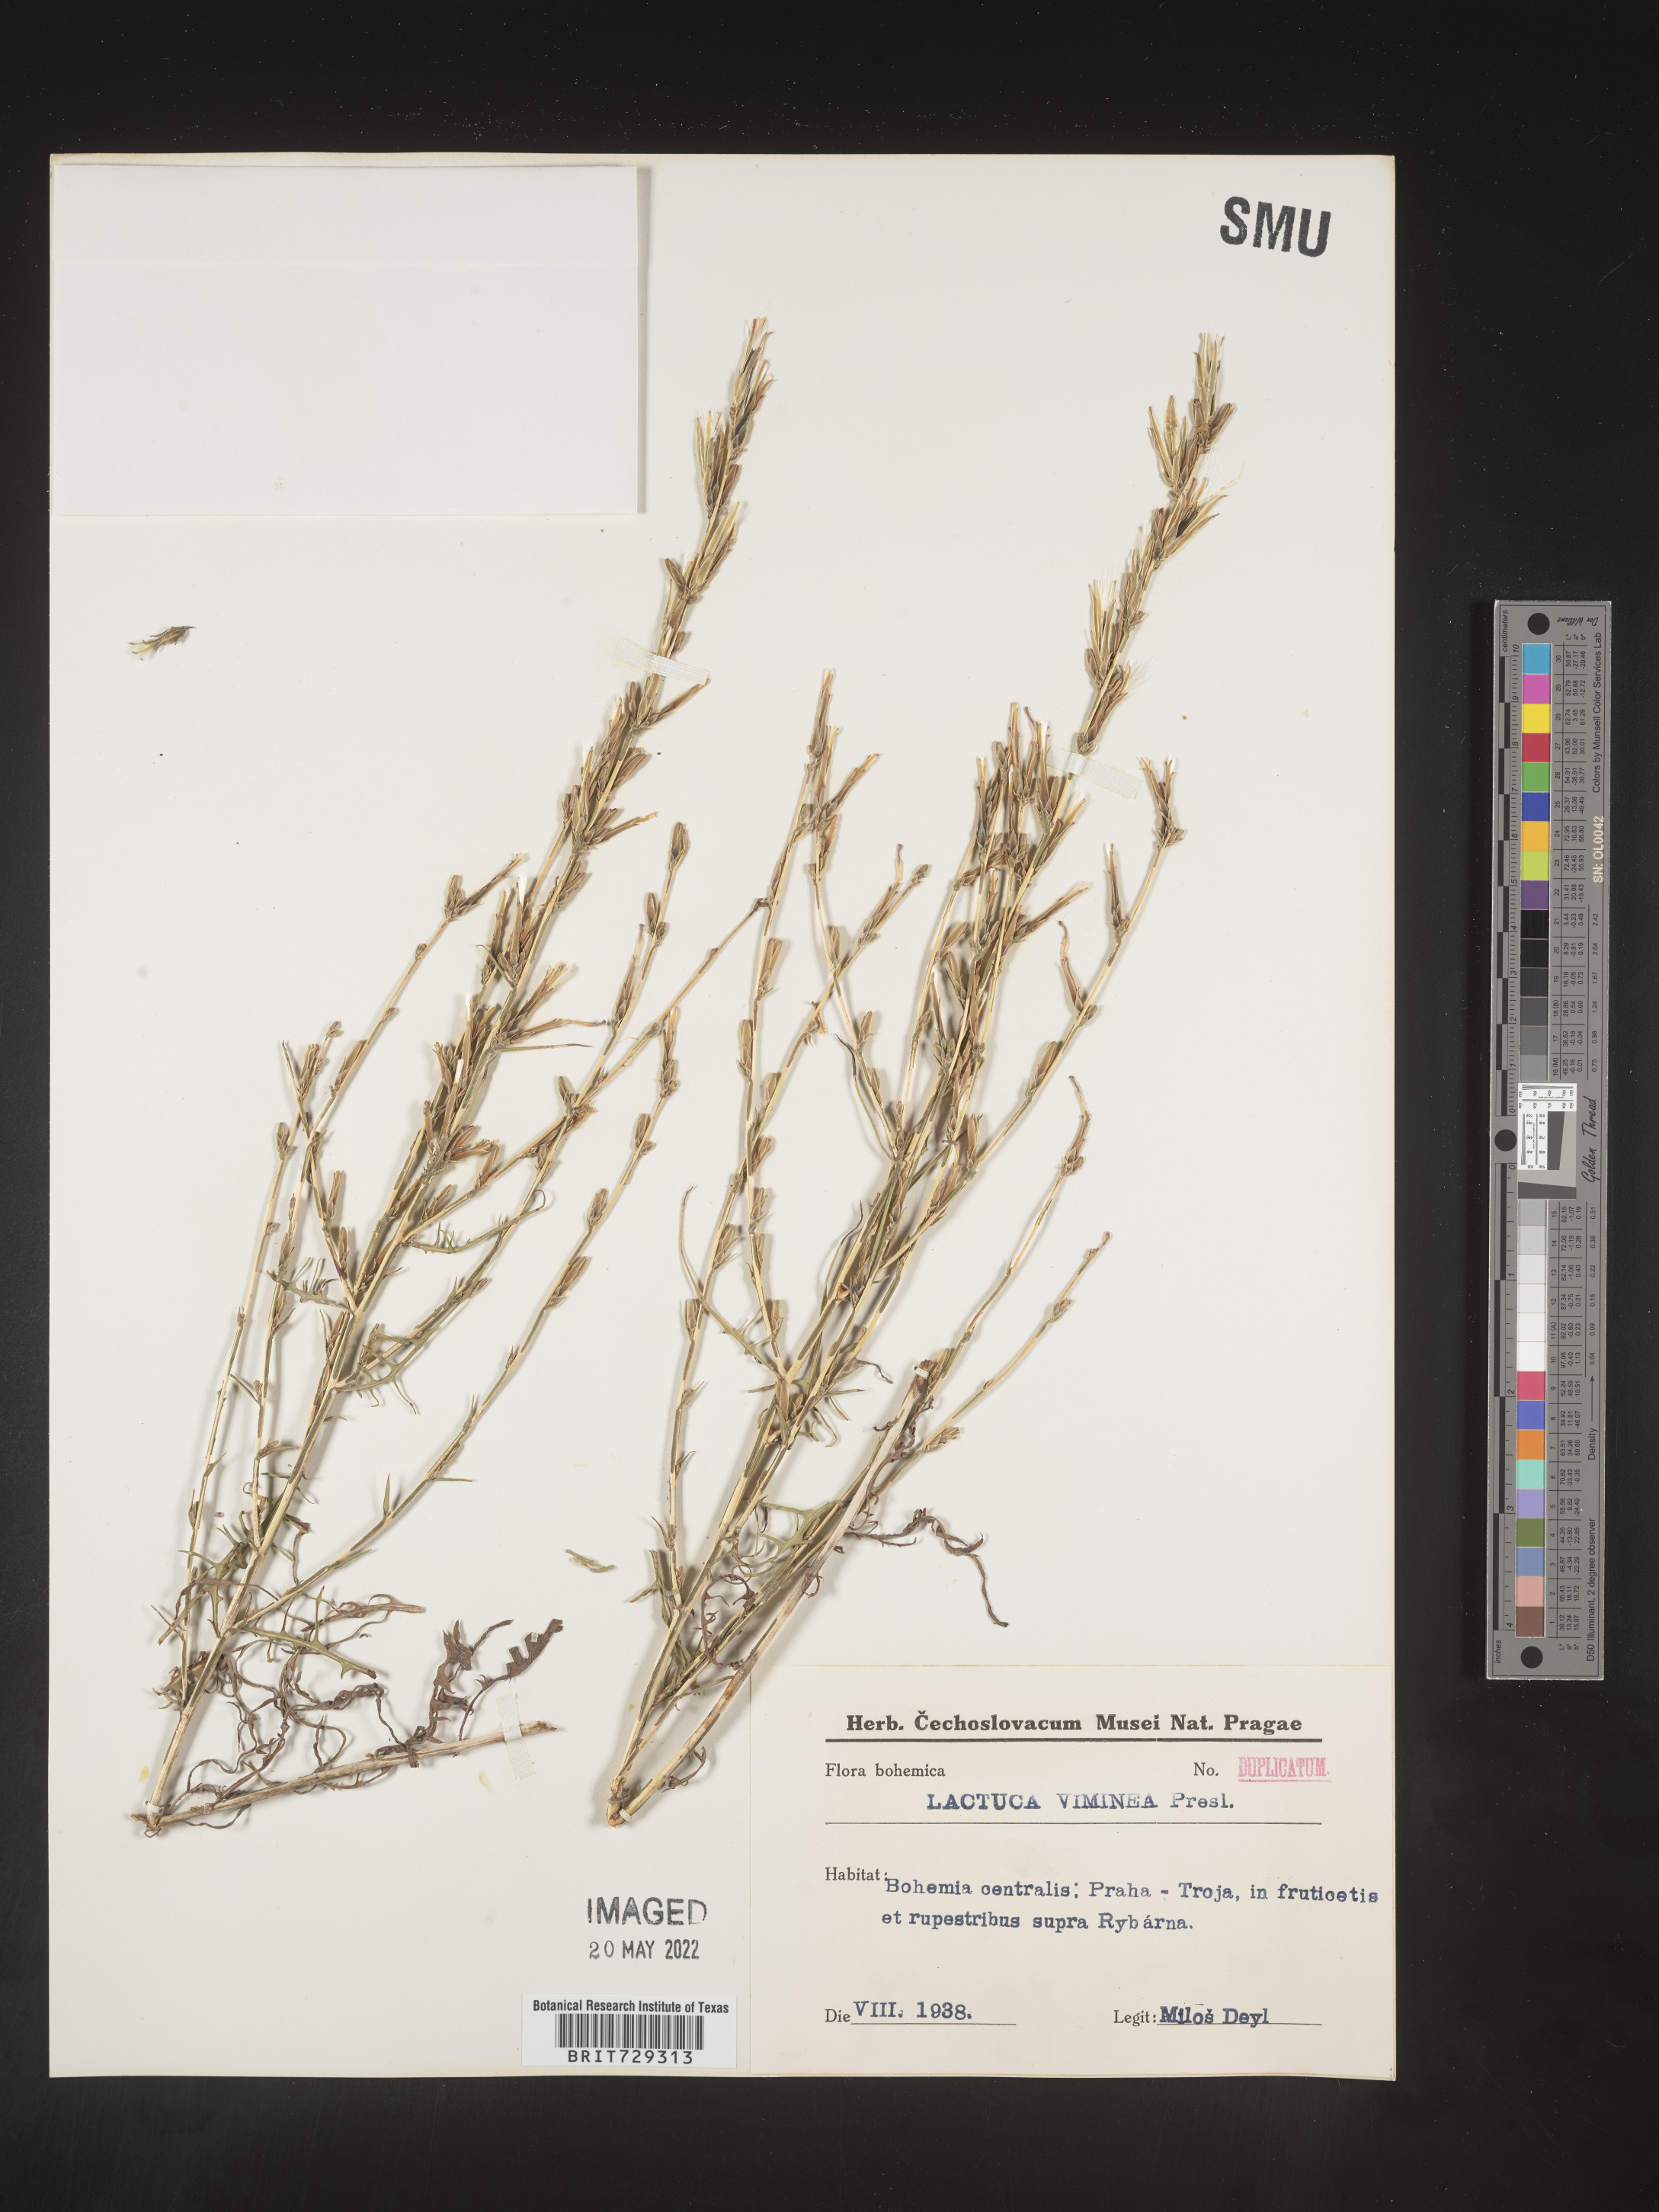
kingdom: Plantae
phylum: Tracheophyta
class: Magnoliopsida
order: Asterales
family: Asteraceae
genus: Lactuca
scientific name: Lactuca
